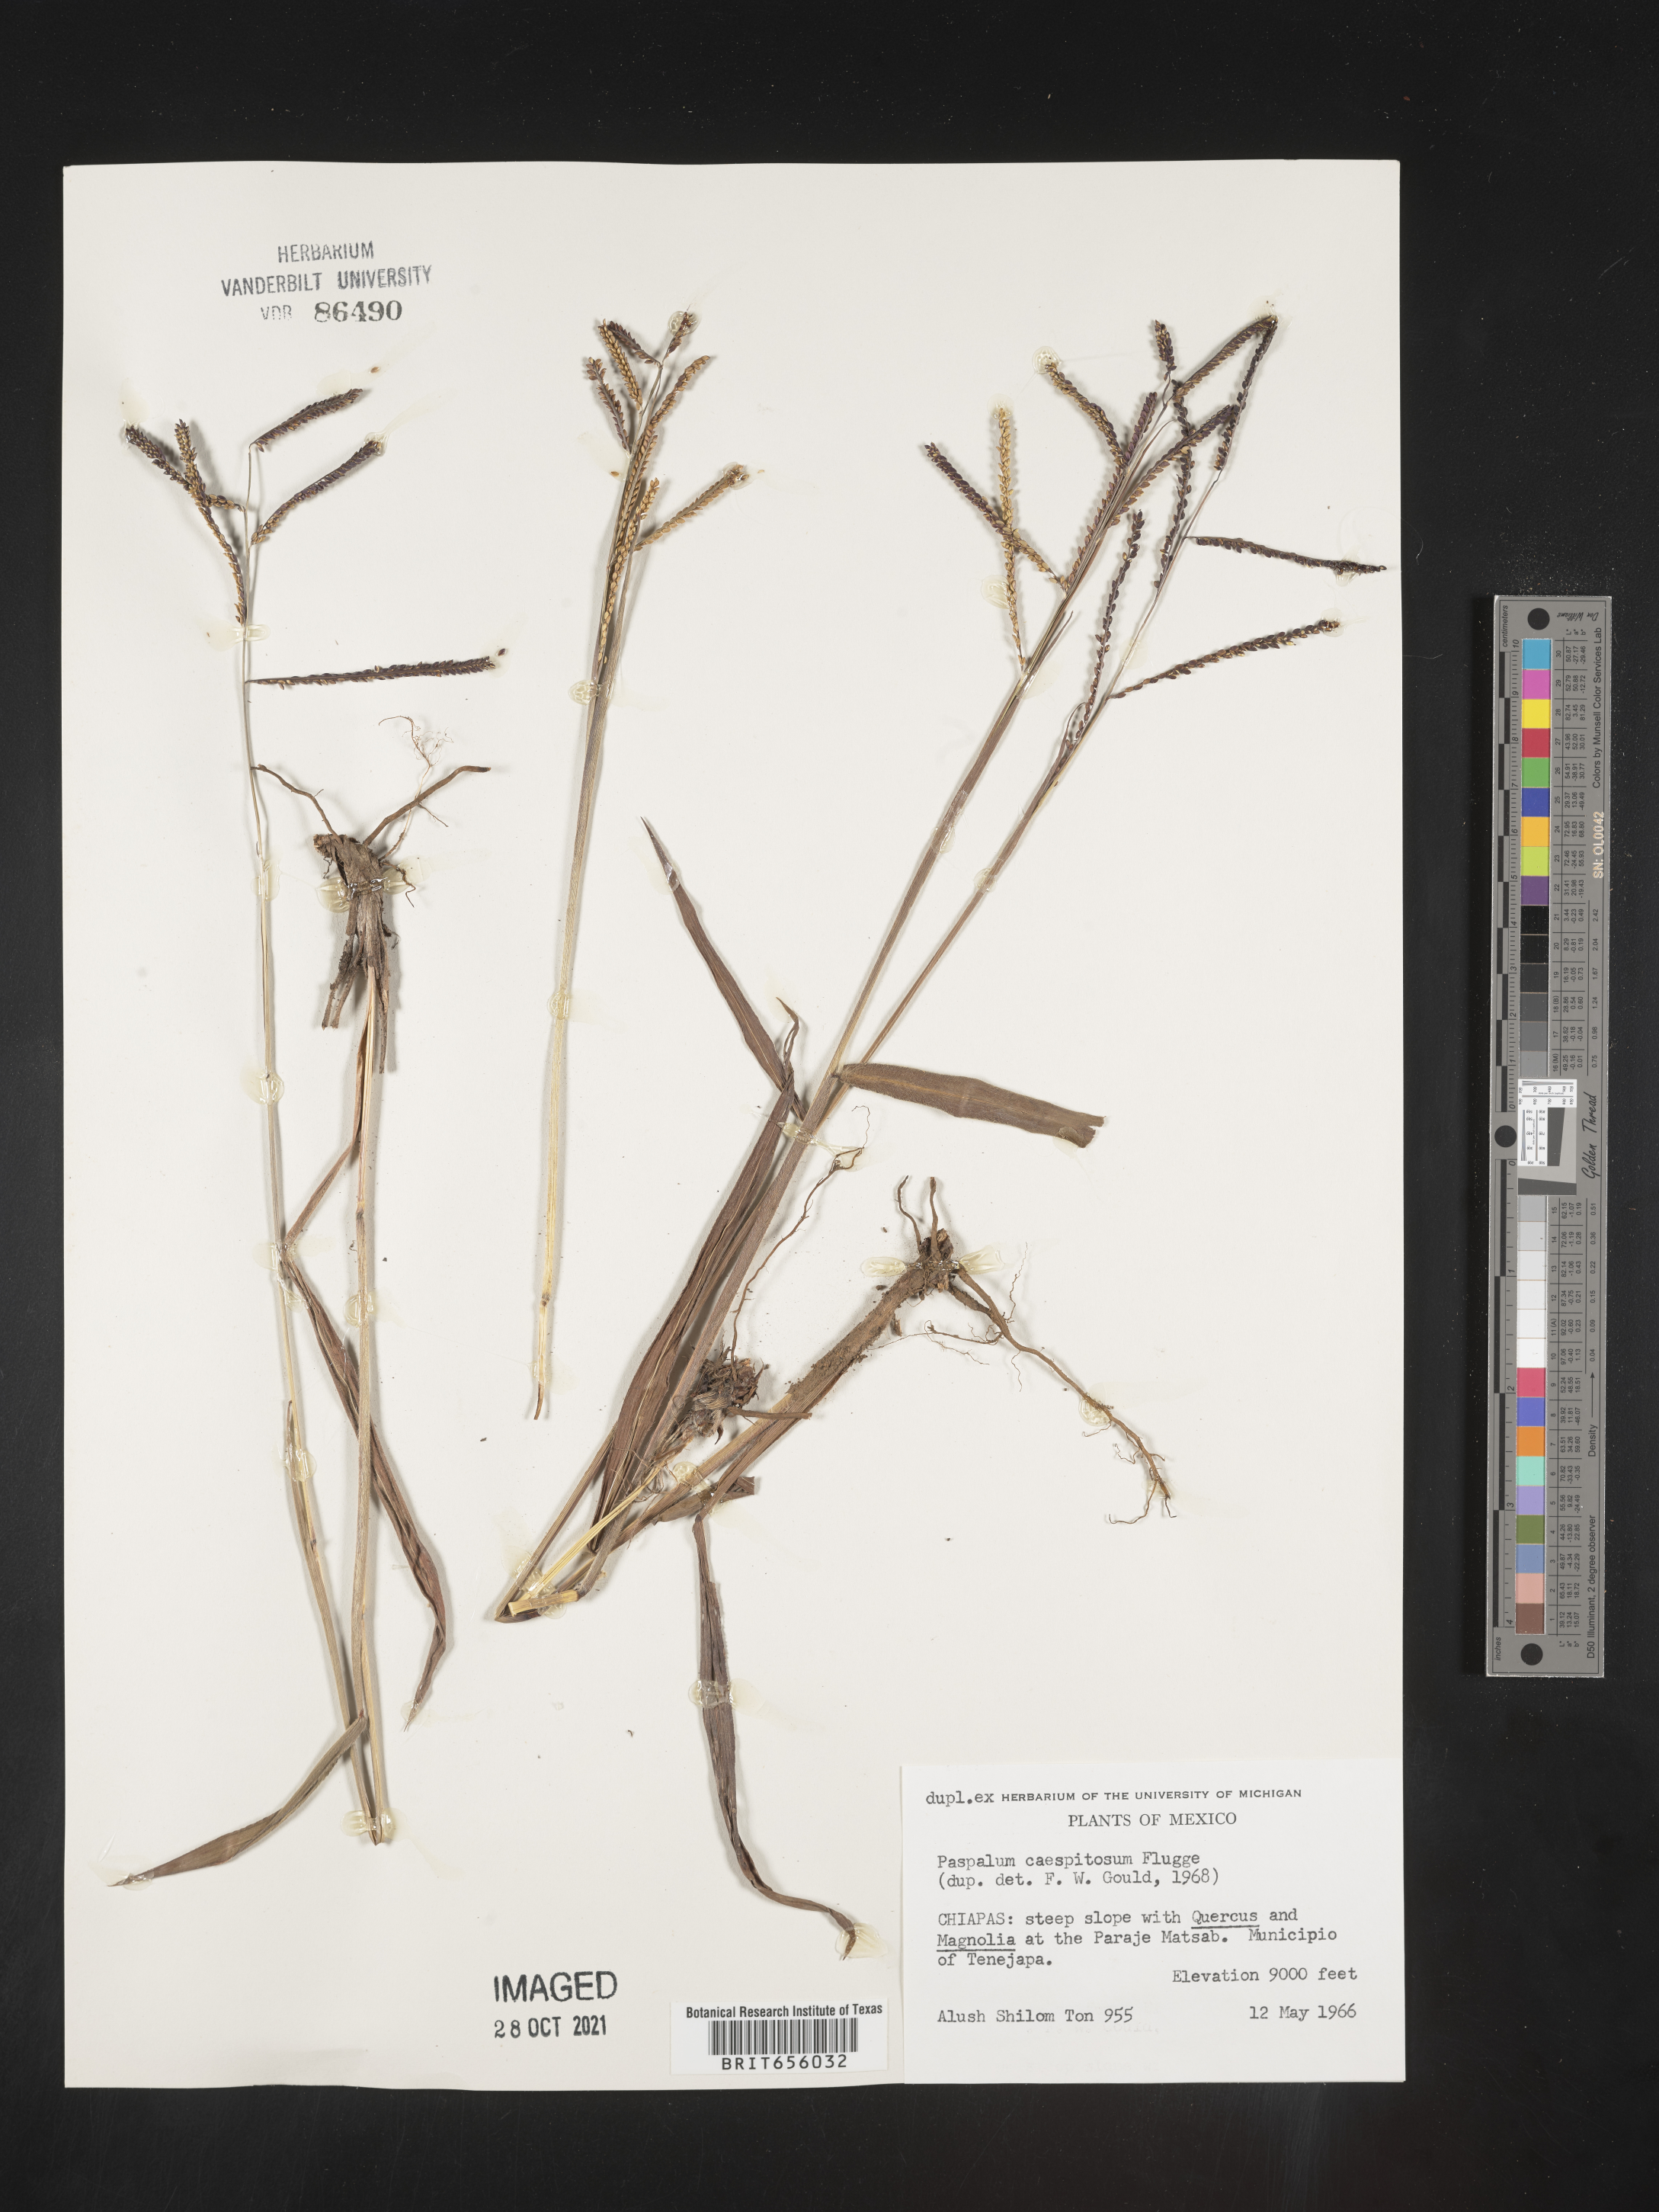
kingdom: Plantae
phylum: Tracheophyta
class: Liliopsida
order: Poales
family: Poaceae
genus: Paspalum
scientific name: Paspalum
